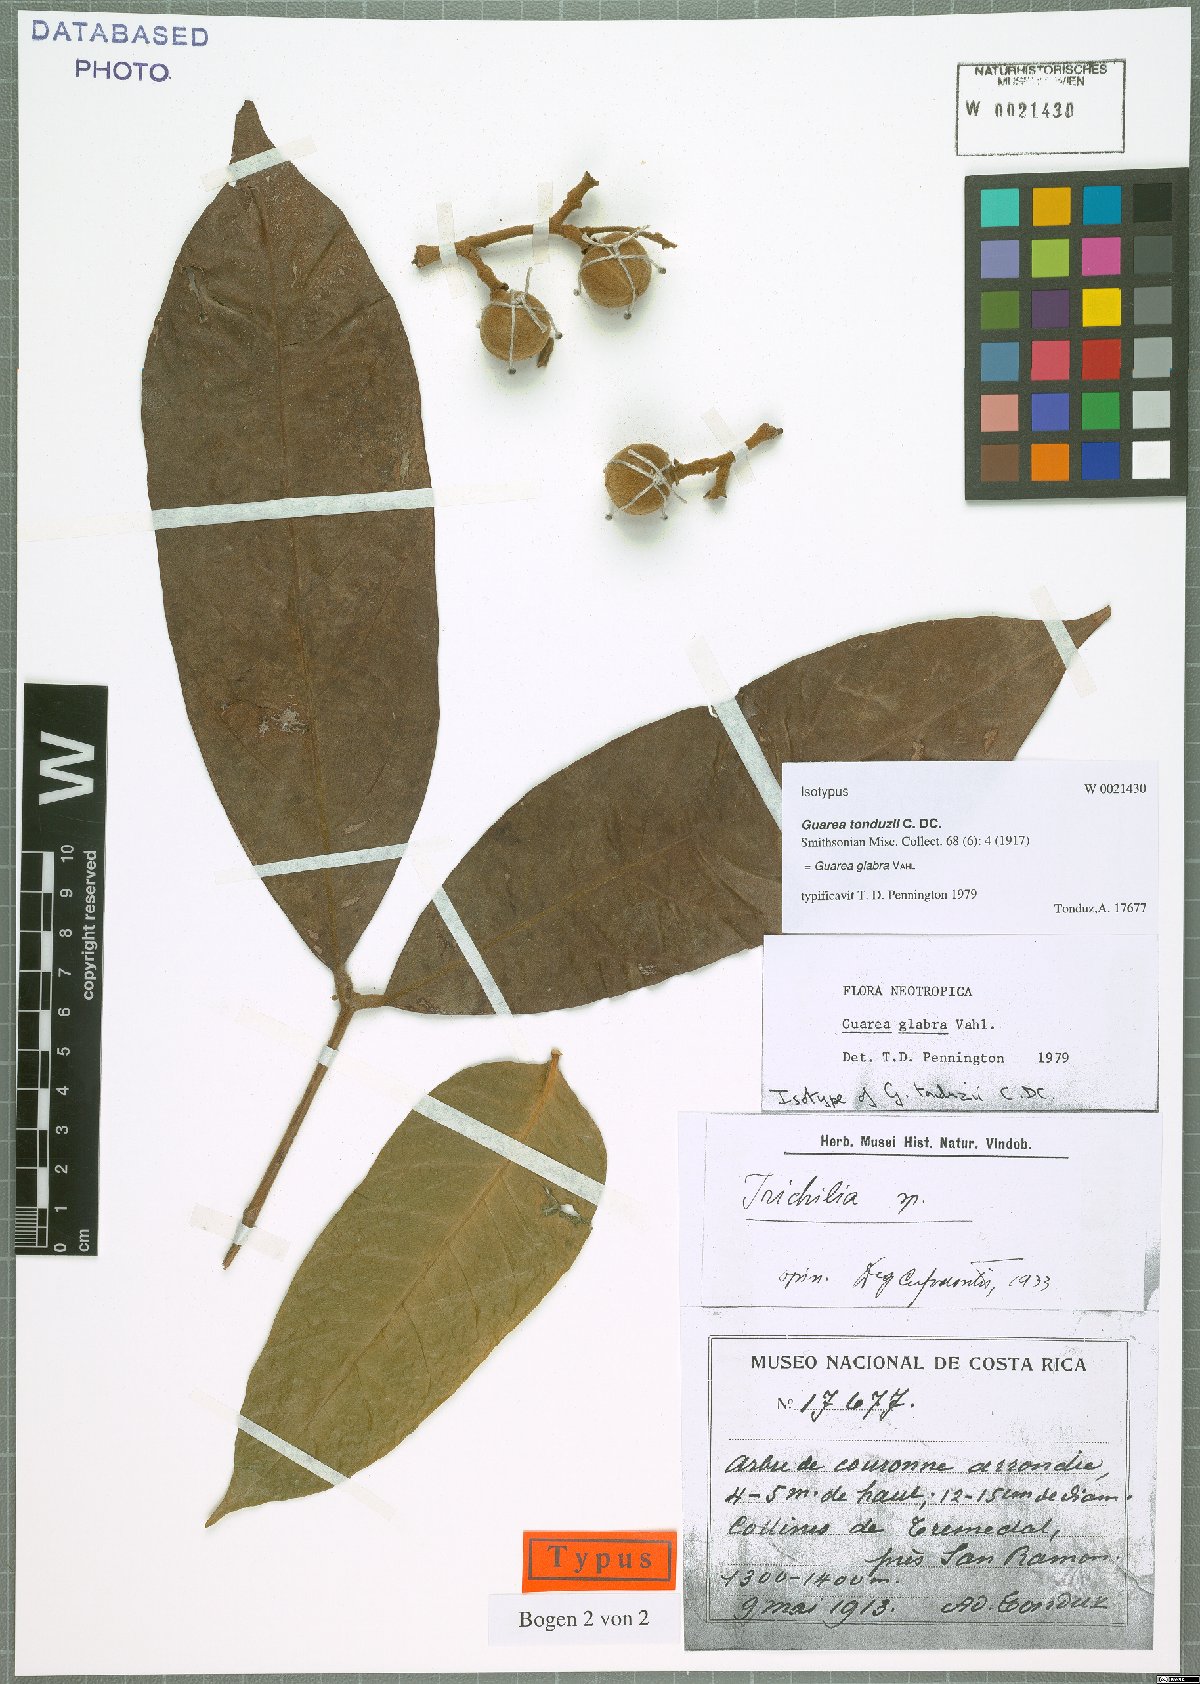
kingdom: Plantae
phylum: Tracheophyta
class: Magnoliopsida
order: Sapindales
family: Meliaceae
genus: Guarea
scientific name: Guarea glabra
